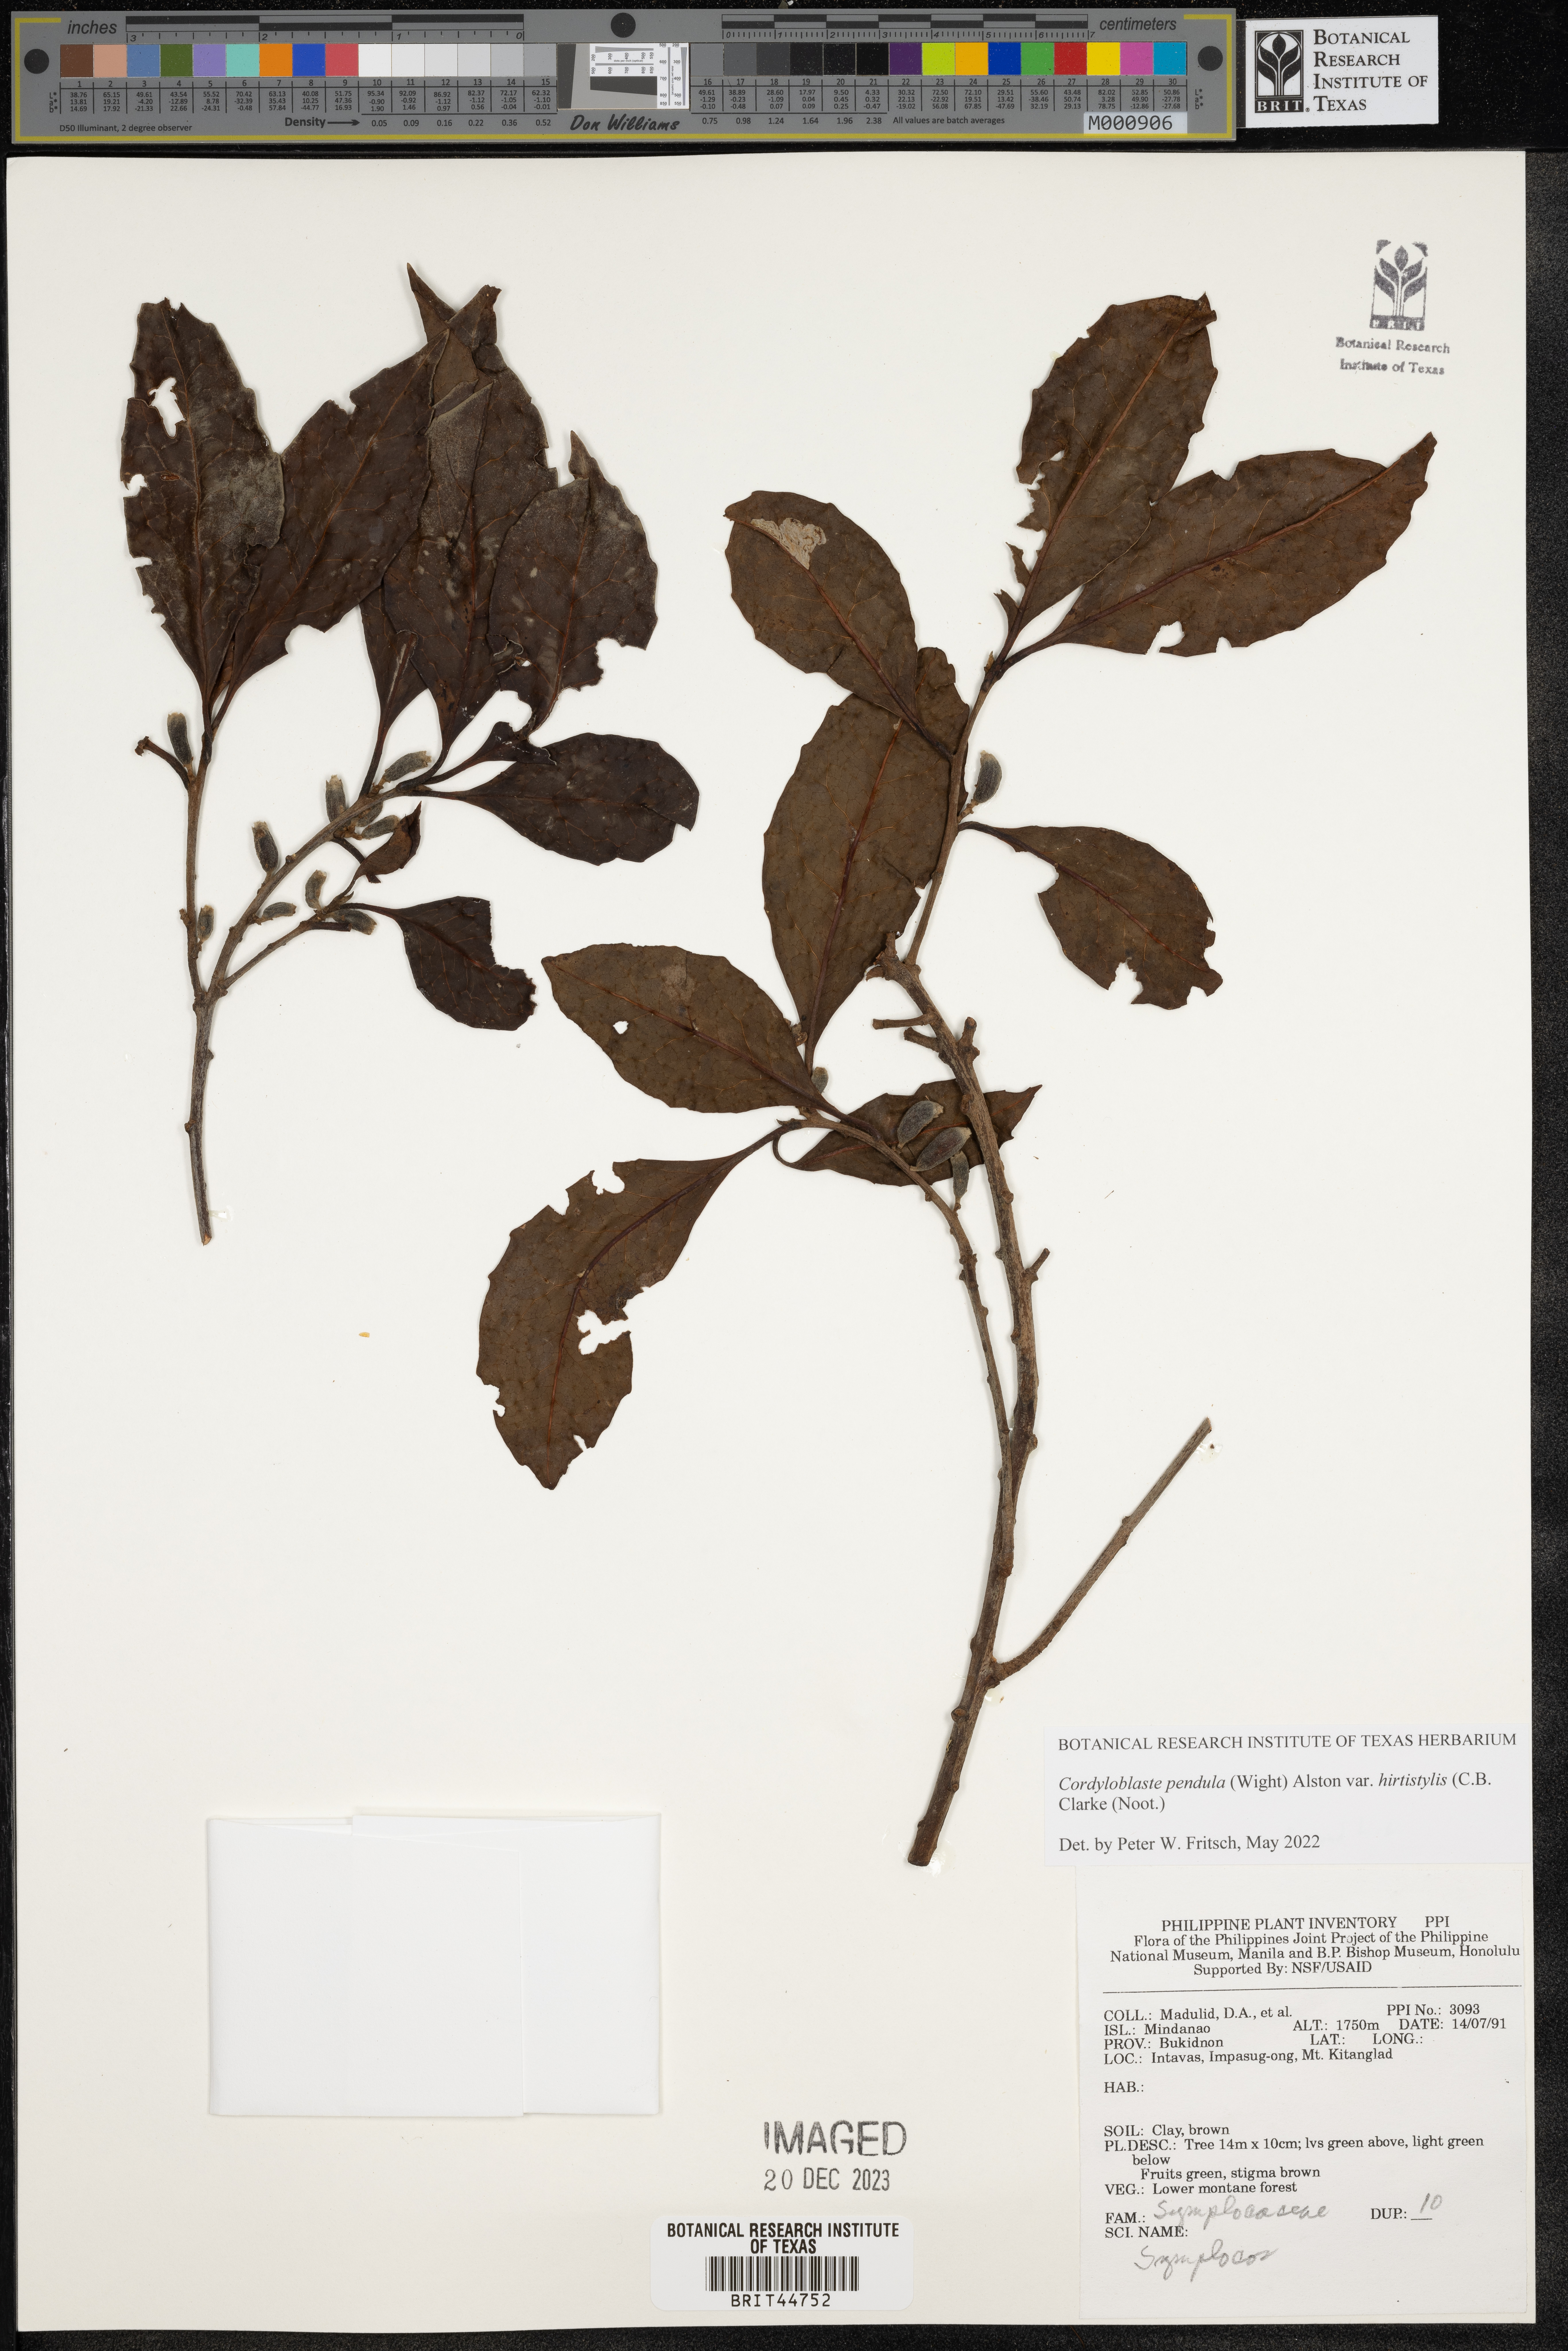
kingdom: Plantae
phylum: Tracheophyta
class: Magnoliopsida
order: Ericales
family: Symplocaceae
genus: Symplocos
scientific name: Symplocos pendula
